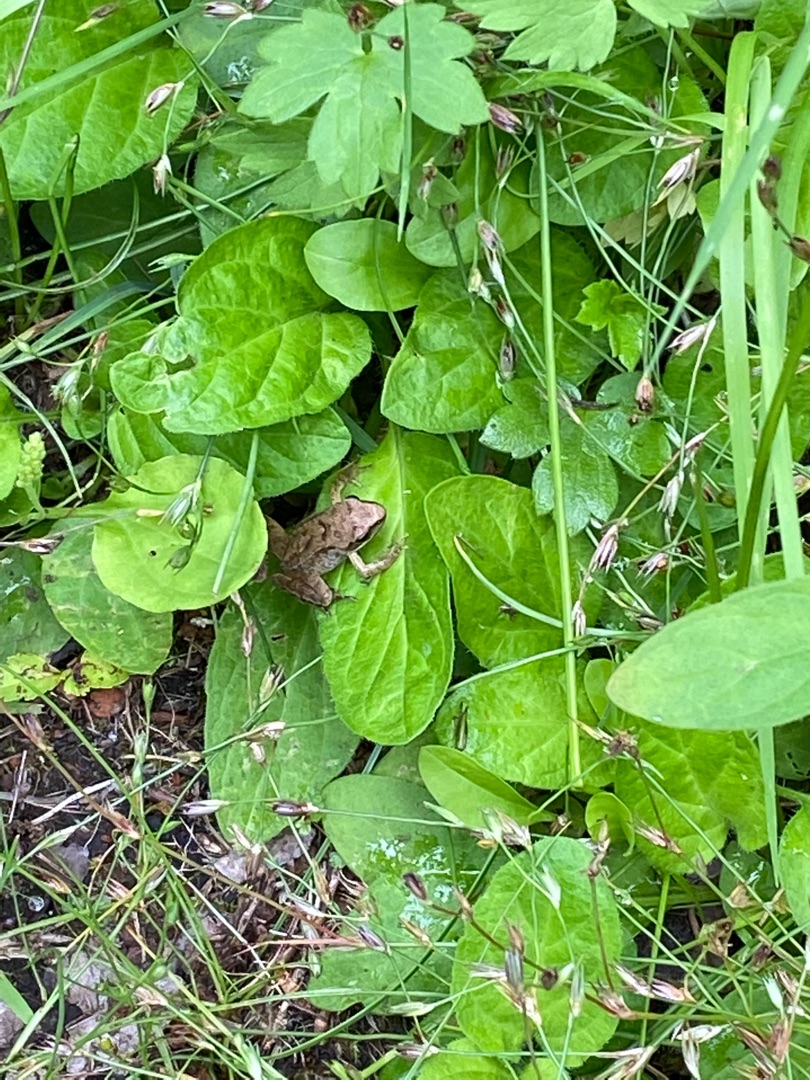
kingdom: Animalia
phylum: Chordata
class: Amphibia
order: Anura
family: Ranidae
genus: Rana
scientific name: Rana temporaria
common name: Butsnudet frø
